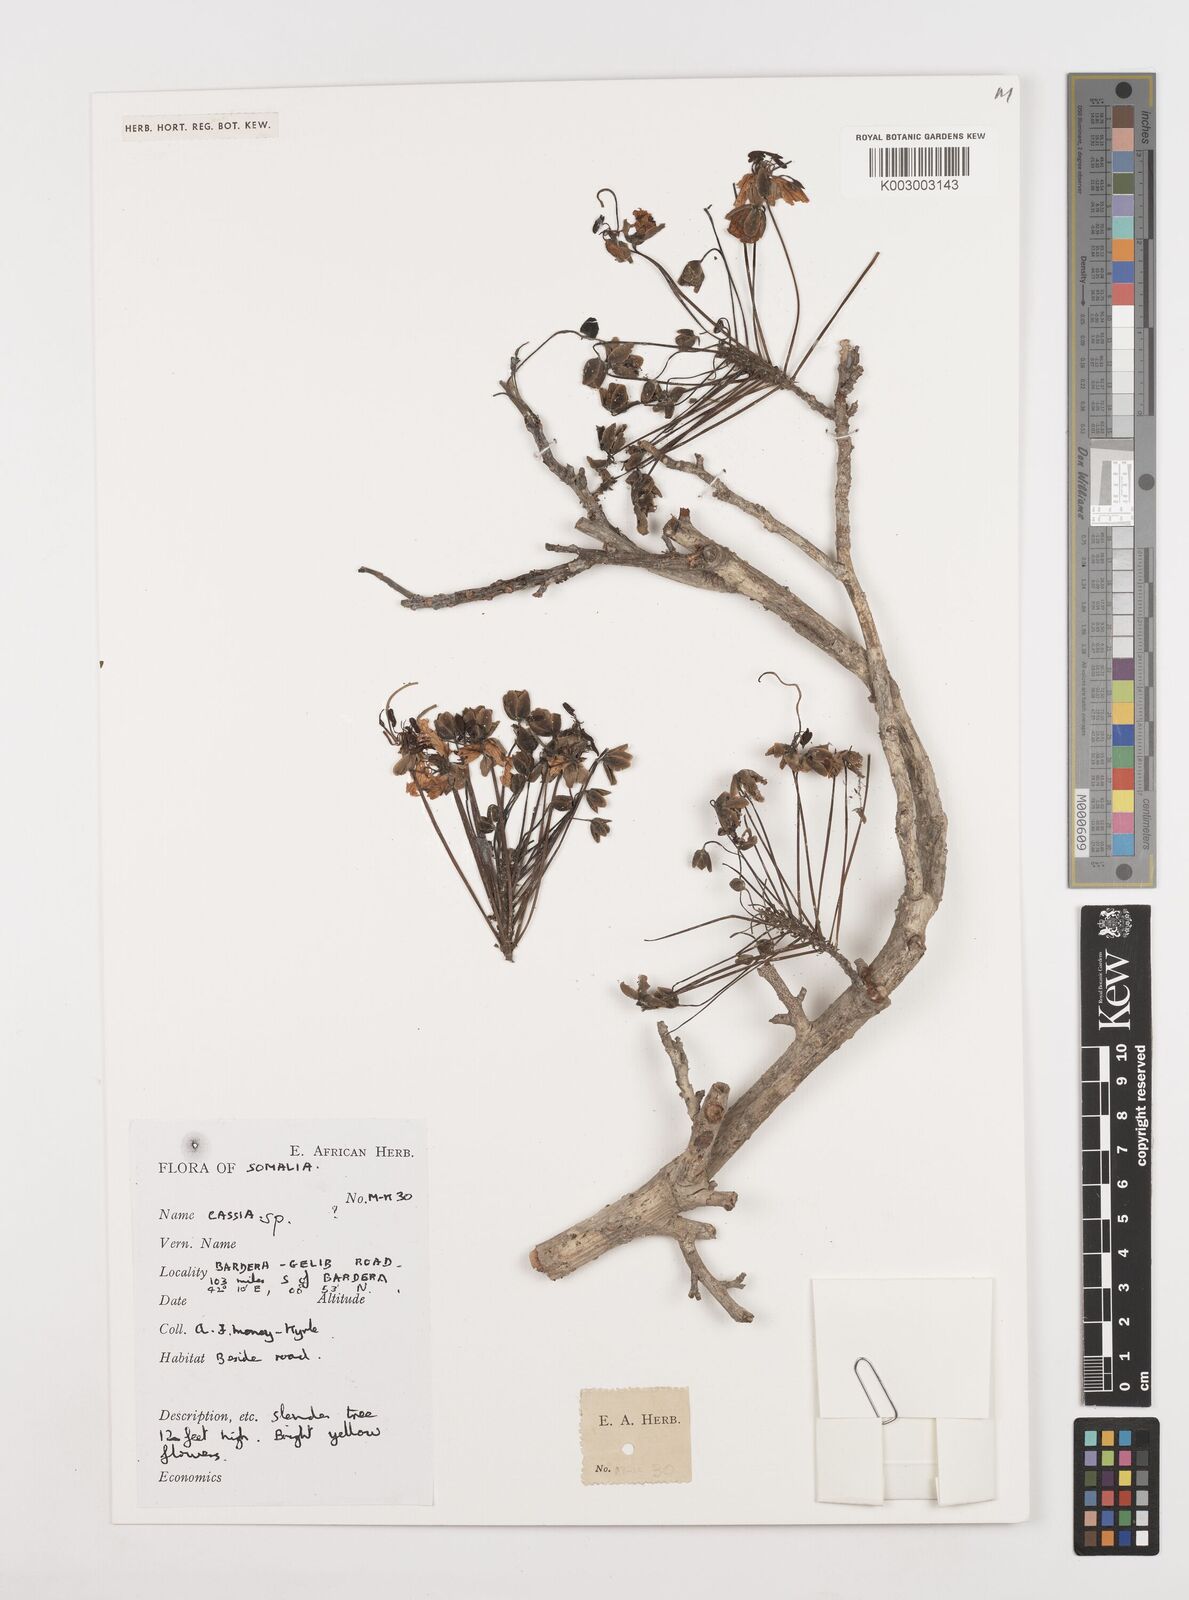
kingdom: Plantae
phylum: Tracheophyta
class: Magnoliopsida
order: Fabales
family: Fabaceae
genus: Cassia
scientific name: Cassia
